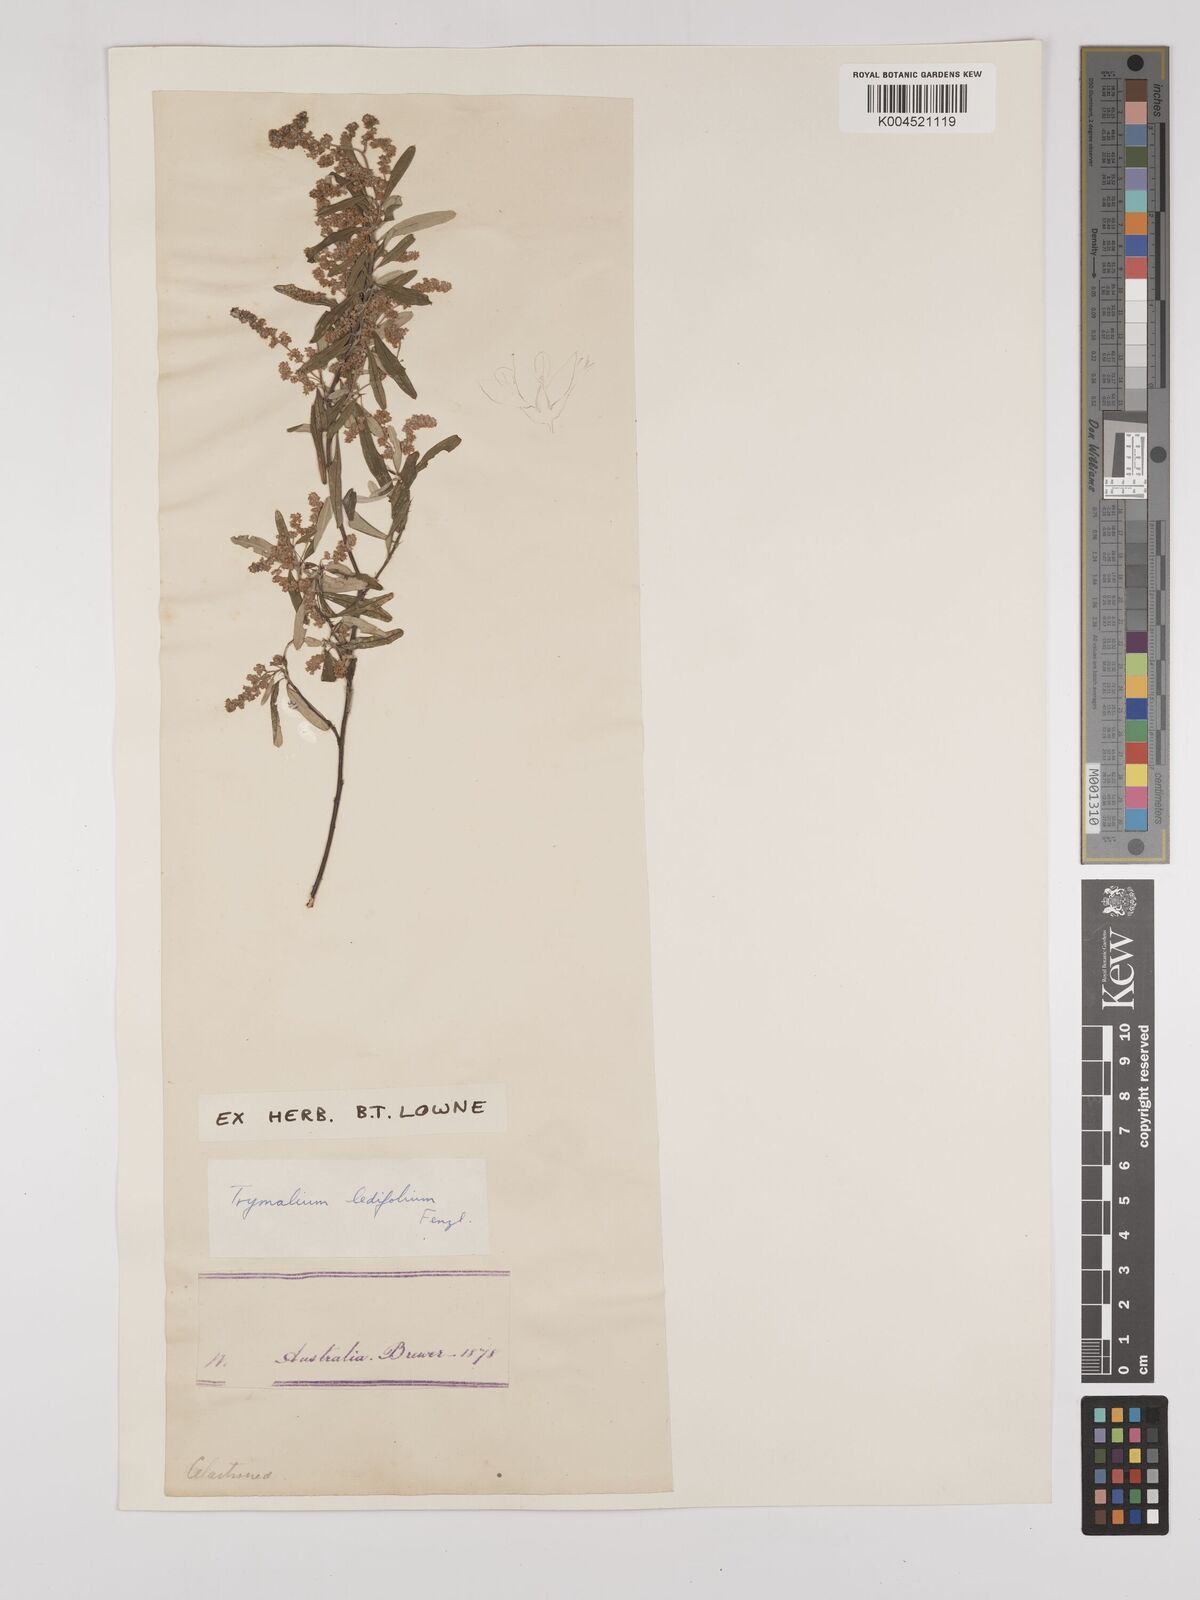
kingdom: Plantae
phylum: Tracheophyta
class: Magnoliopsida
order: Rosales
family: Rhamnaceae
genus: Trymalium
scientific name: Trymalium ledifolium
